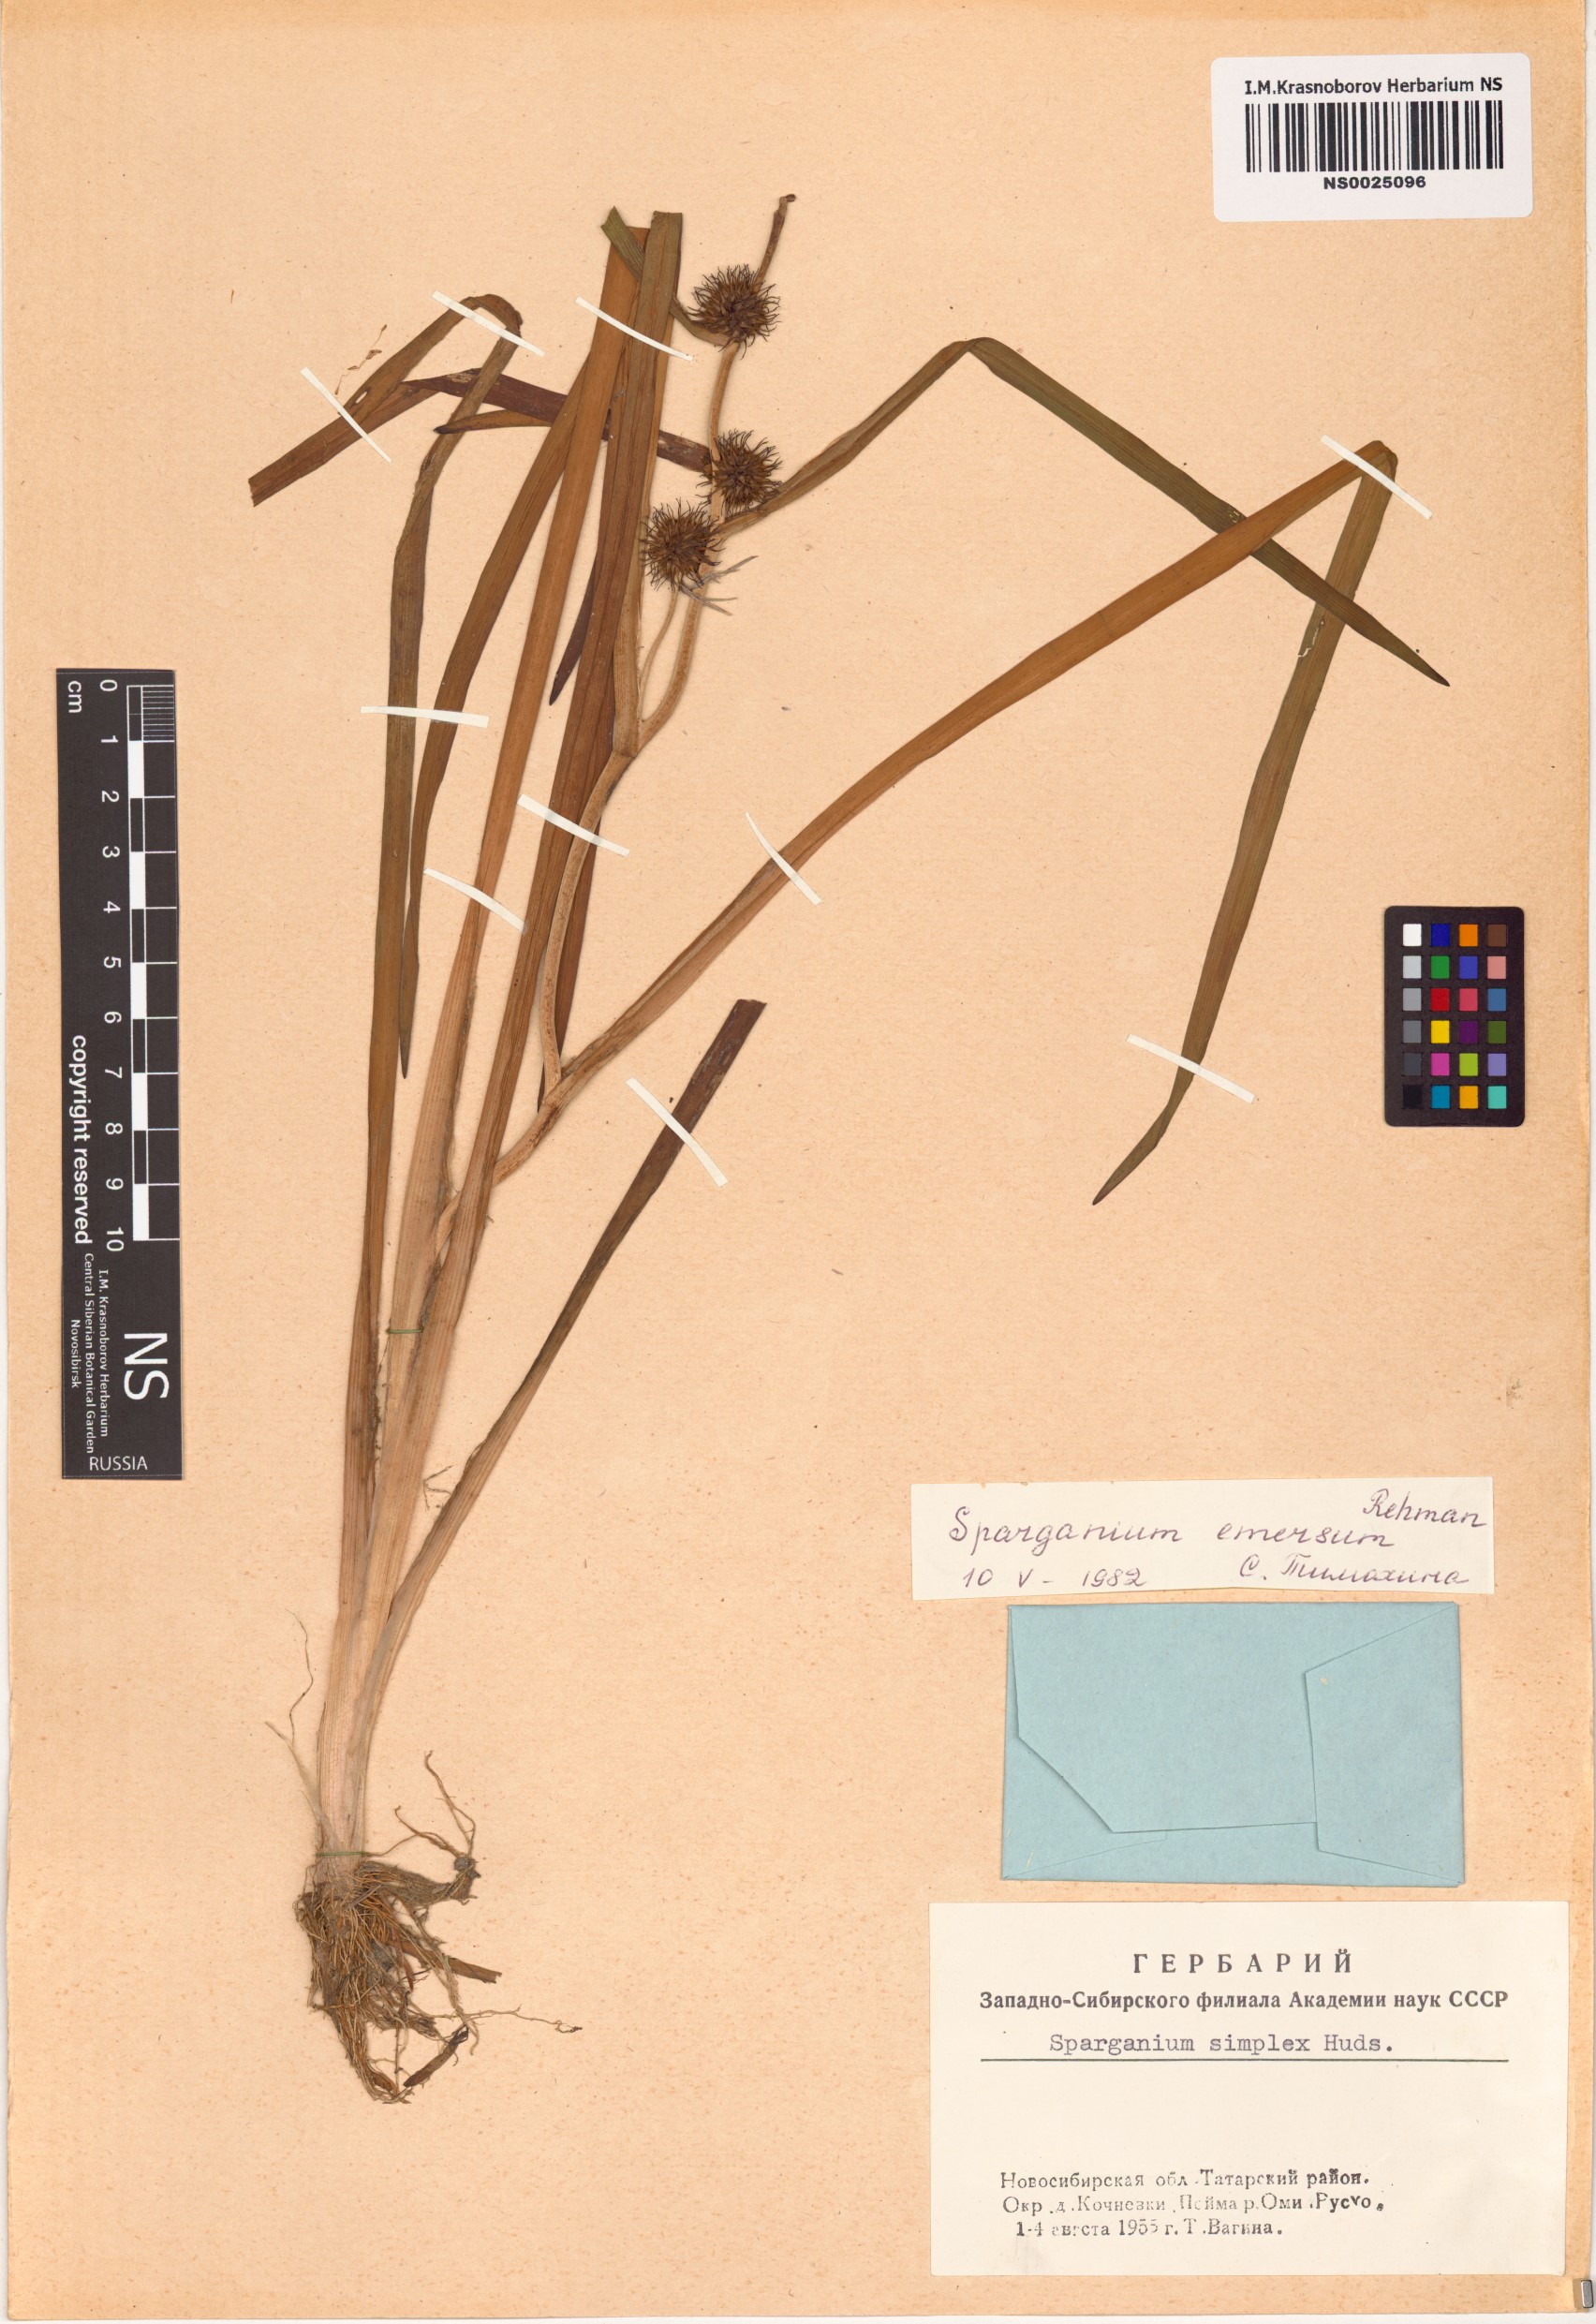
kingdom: Plantae
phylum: Tracheophyta
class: Liliopsida
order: Poales
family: Typhaceae
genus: Sparganium
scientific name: Sparganium emersum
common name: Unbranched bur-reed
